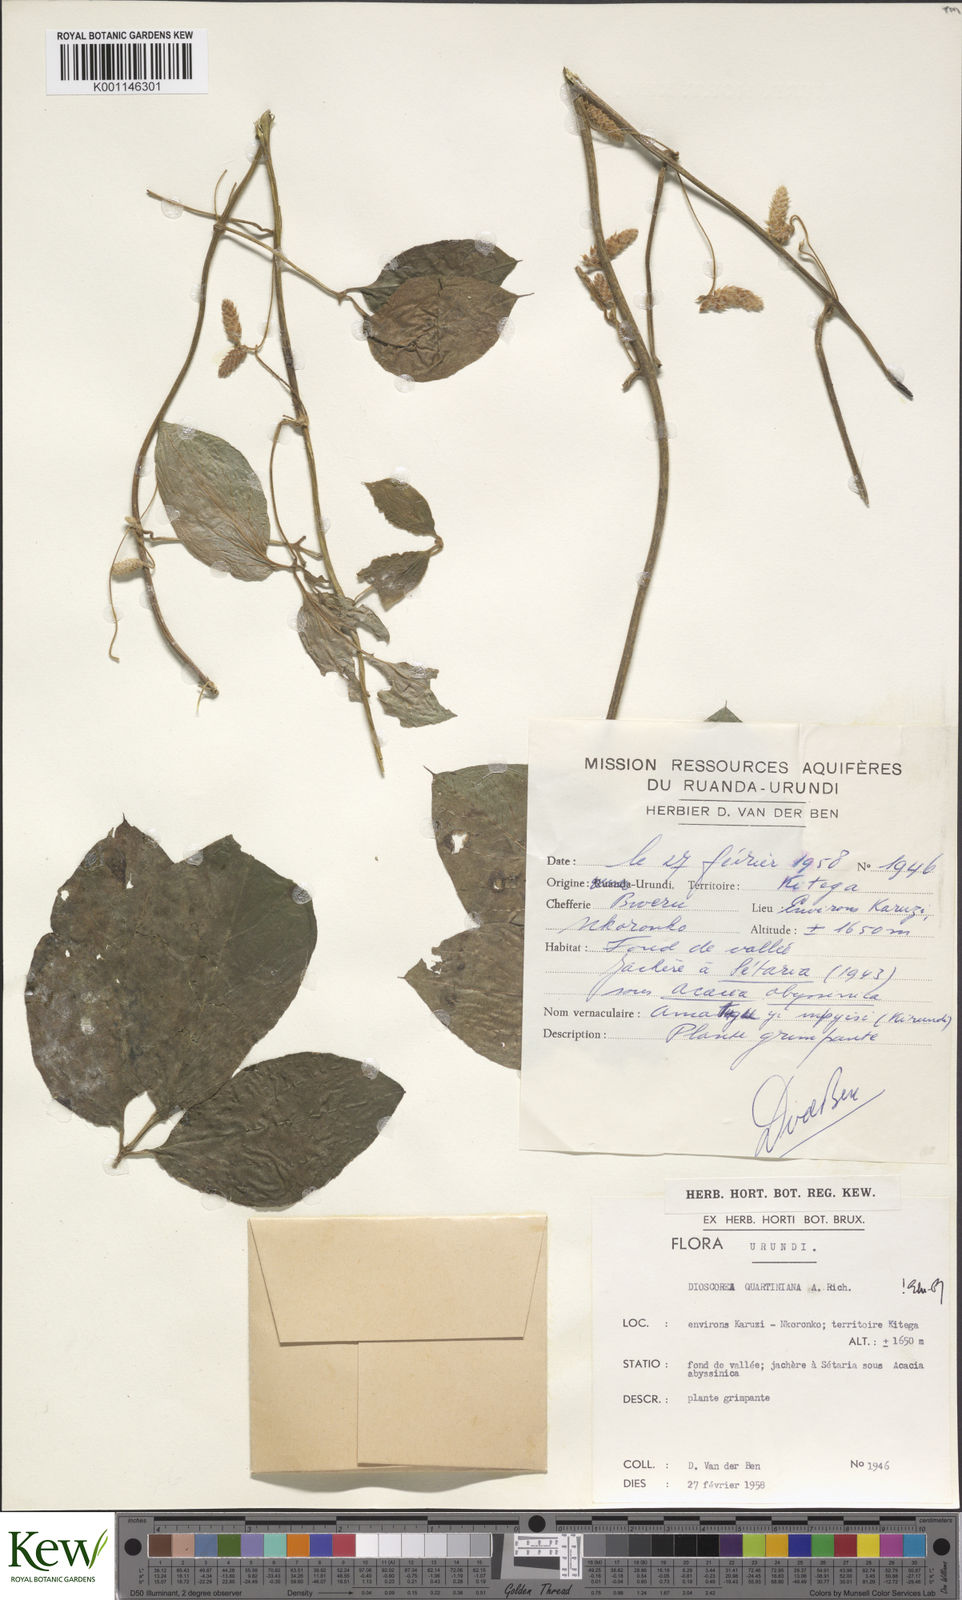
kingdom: Plantae
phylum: Tracheophyta
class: Liliopsida
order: Dioscoreales
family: Dioscoreaceae
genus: Dioscorea
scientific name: Dioscorea quartiniana
